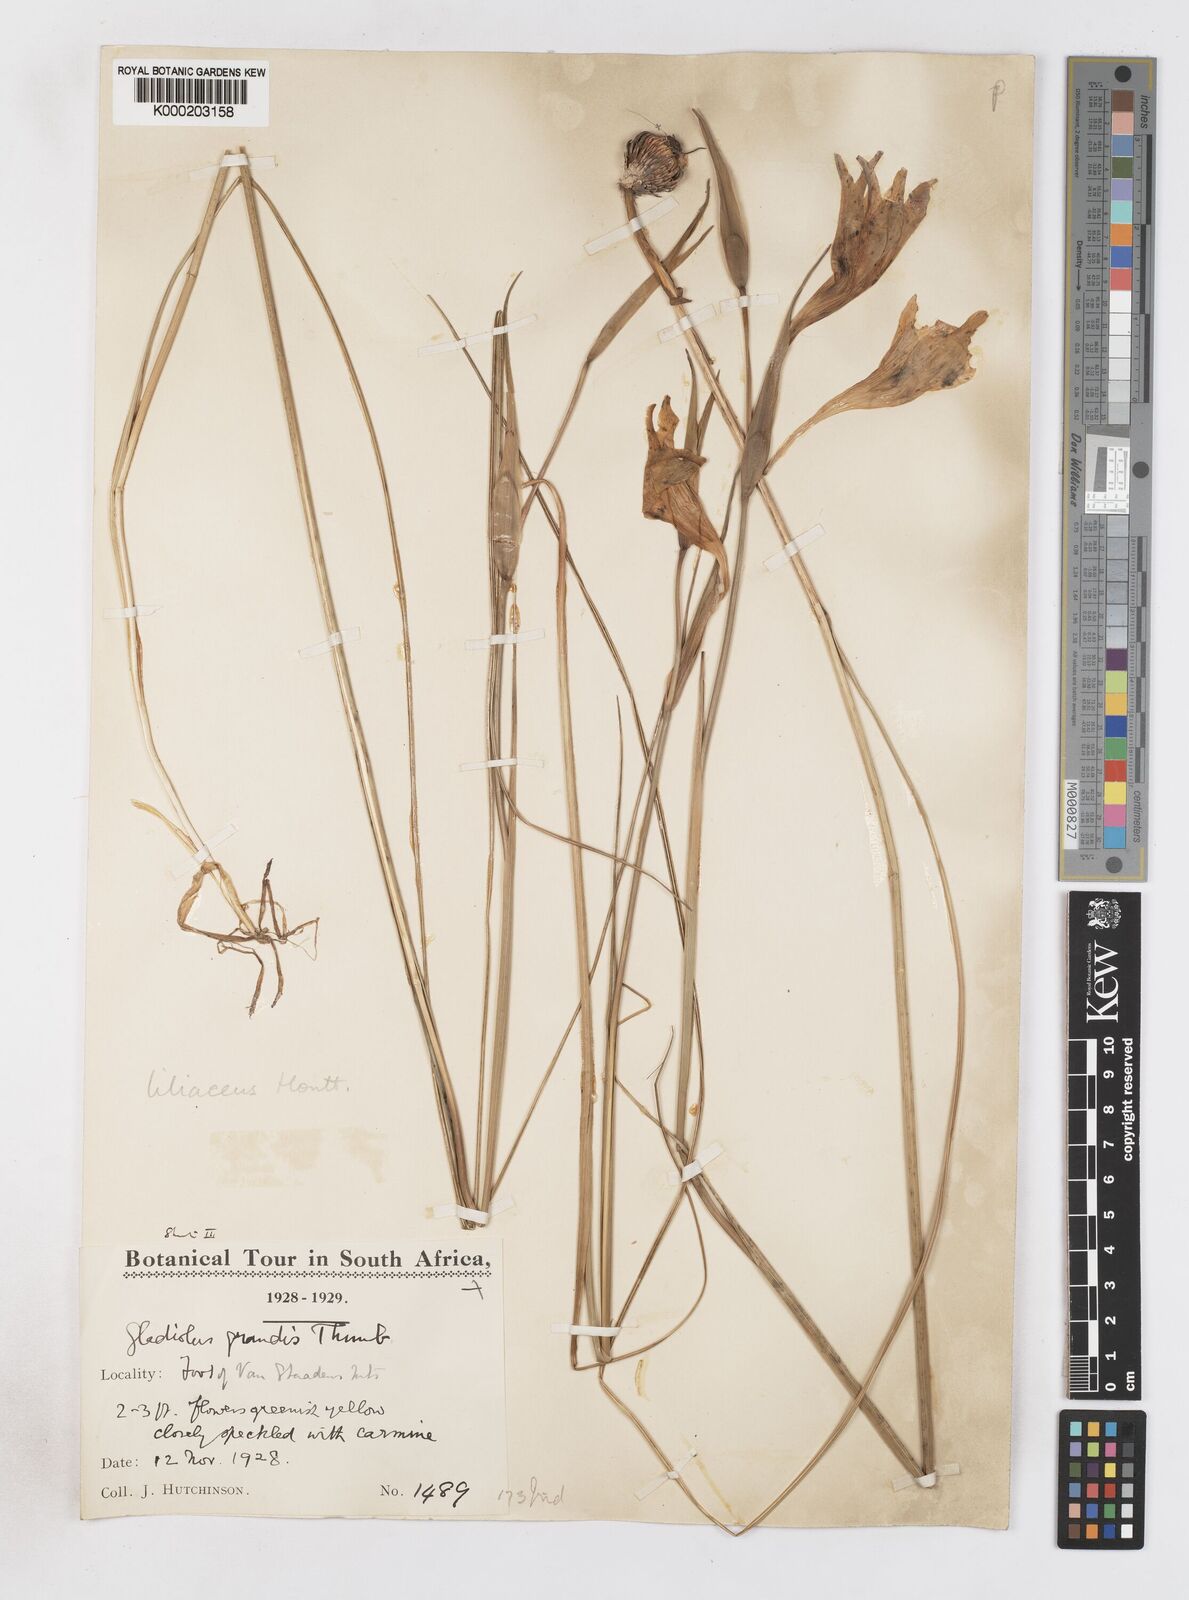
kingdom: Plantae
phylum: Tracheophyta
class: Liliopsida
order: Asparagales
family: Iridaceae
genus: Gladiolus
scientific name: Gladiolus liliaceus
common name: Large brown afrikaner
